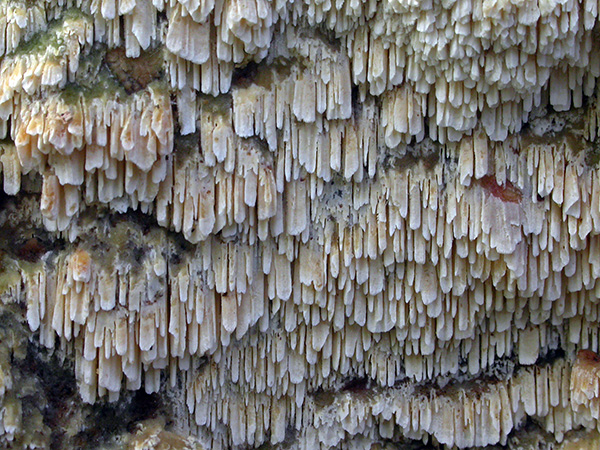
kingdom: Fungi
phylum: Basidiomycota
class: Agaricomycetes
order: Hymenochaetales
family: Schizoporaceae
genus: Schizopora
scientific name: Schizopora paradoxa
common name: hvid tandsvamp
